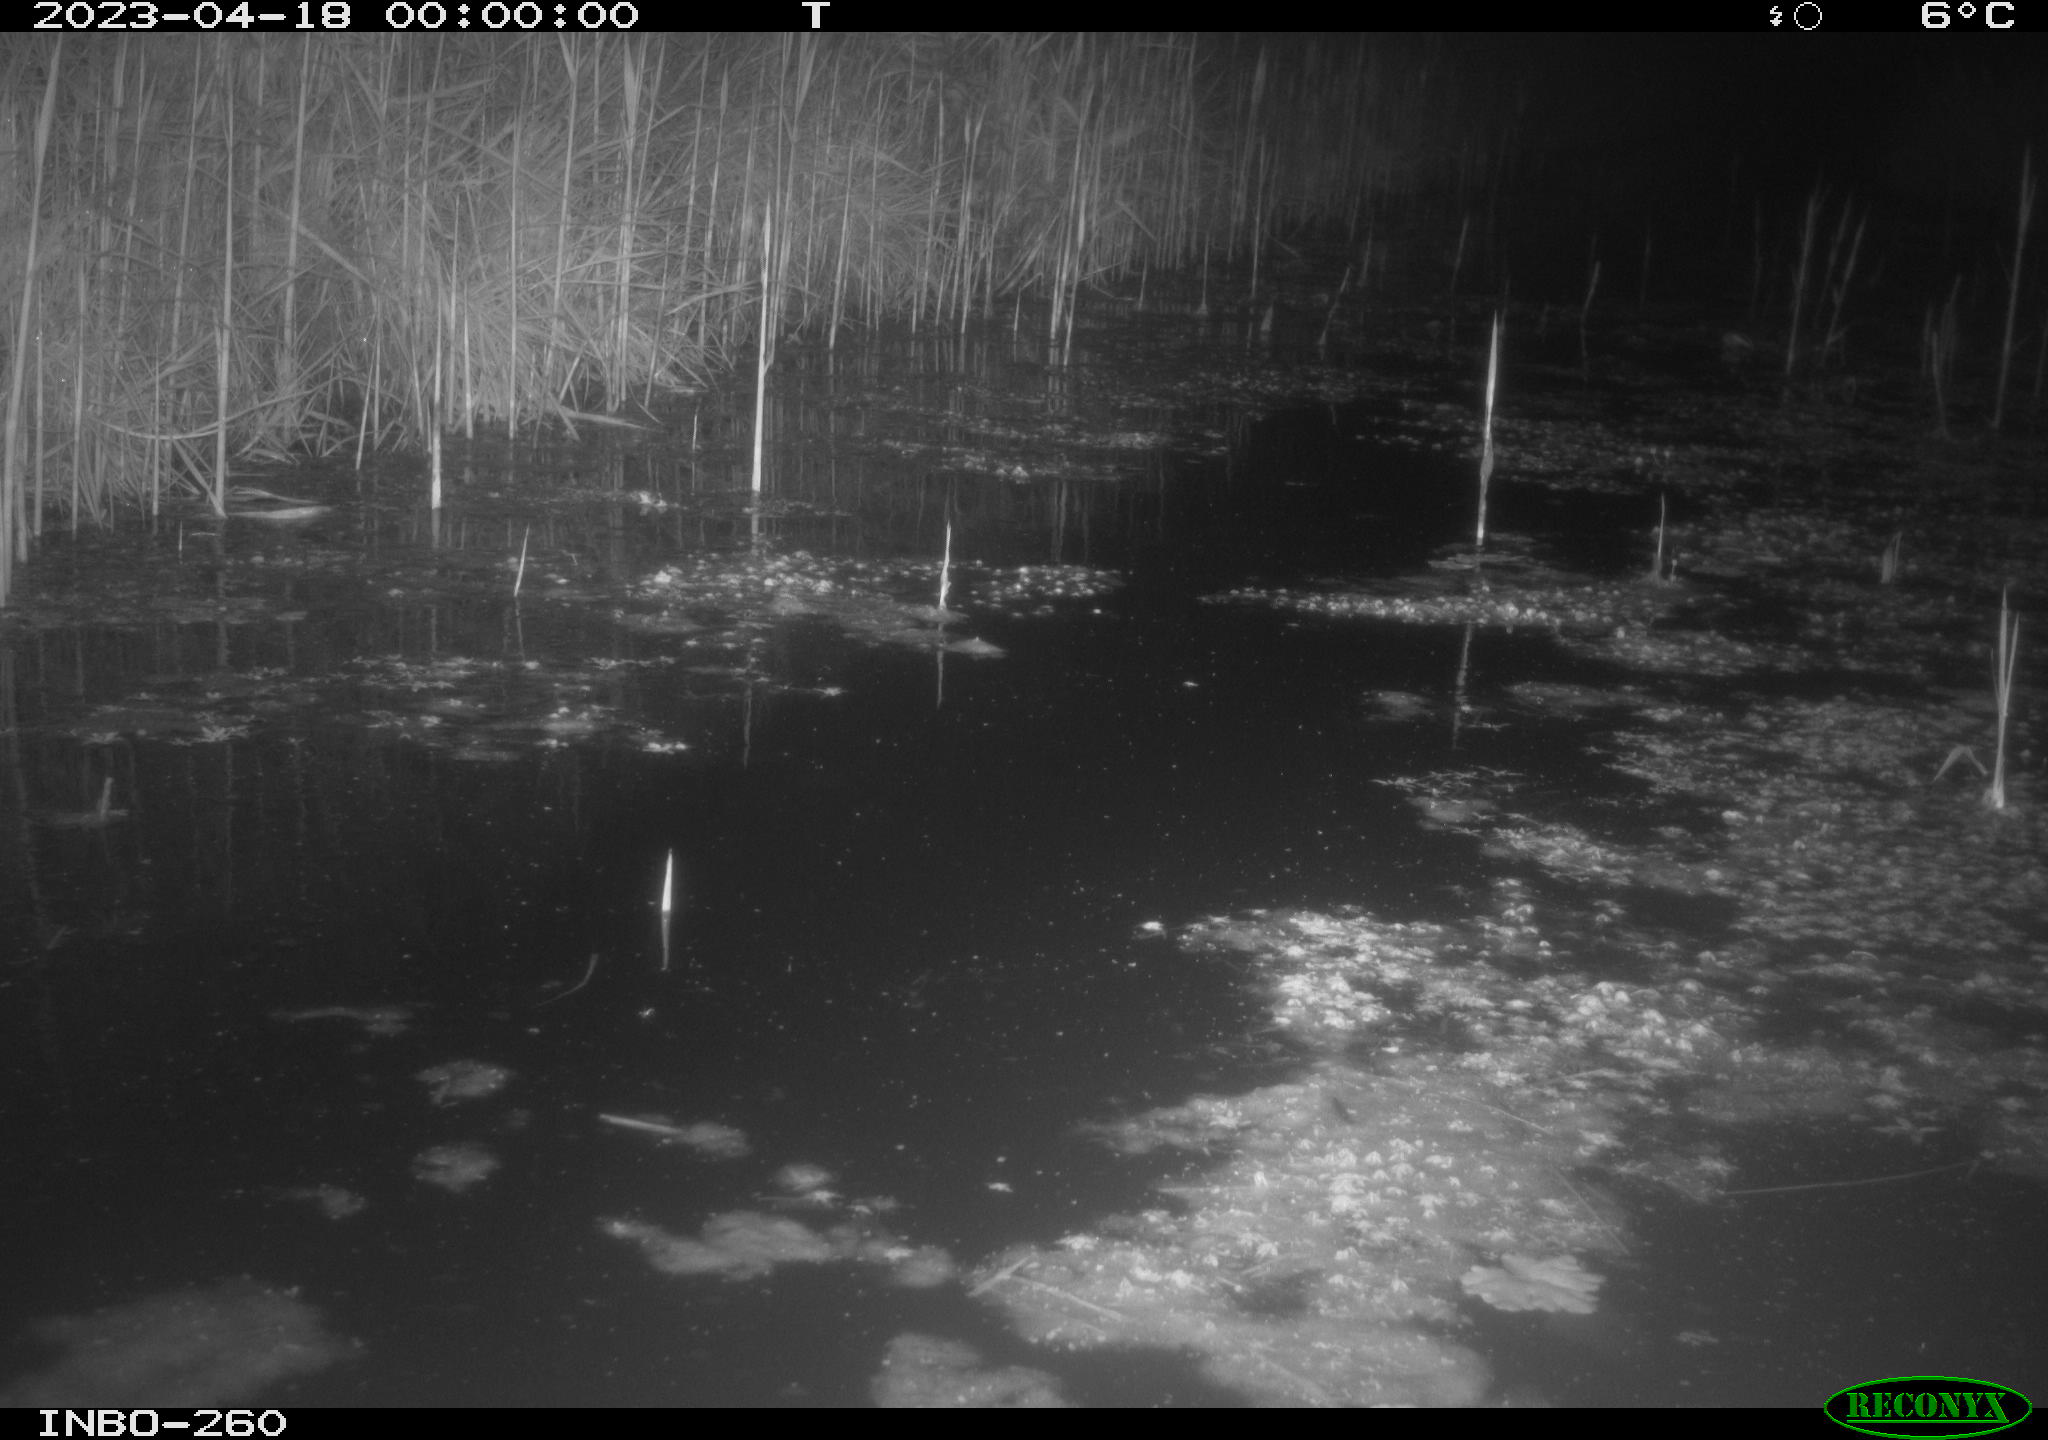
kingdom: Animalia
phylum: Chordata
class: Mammalia
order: Rodentia
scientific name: Rodentia
